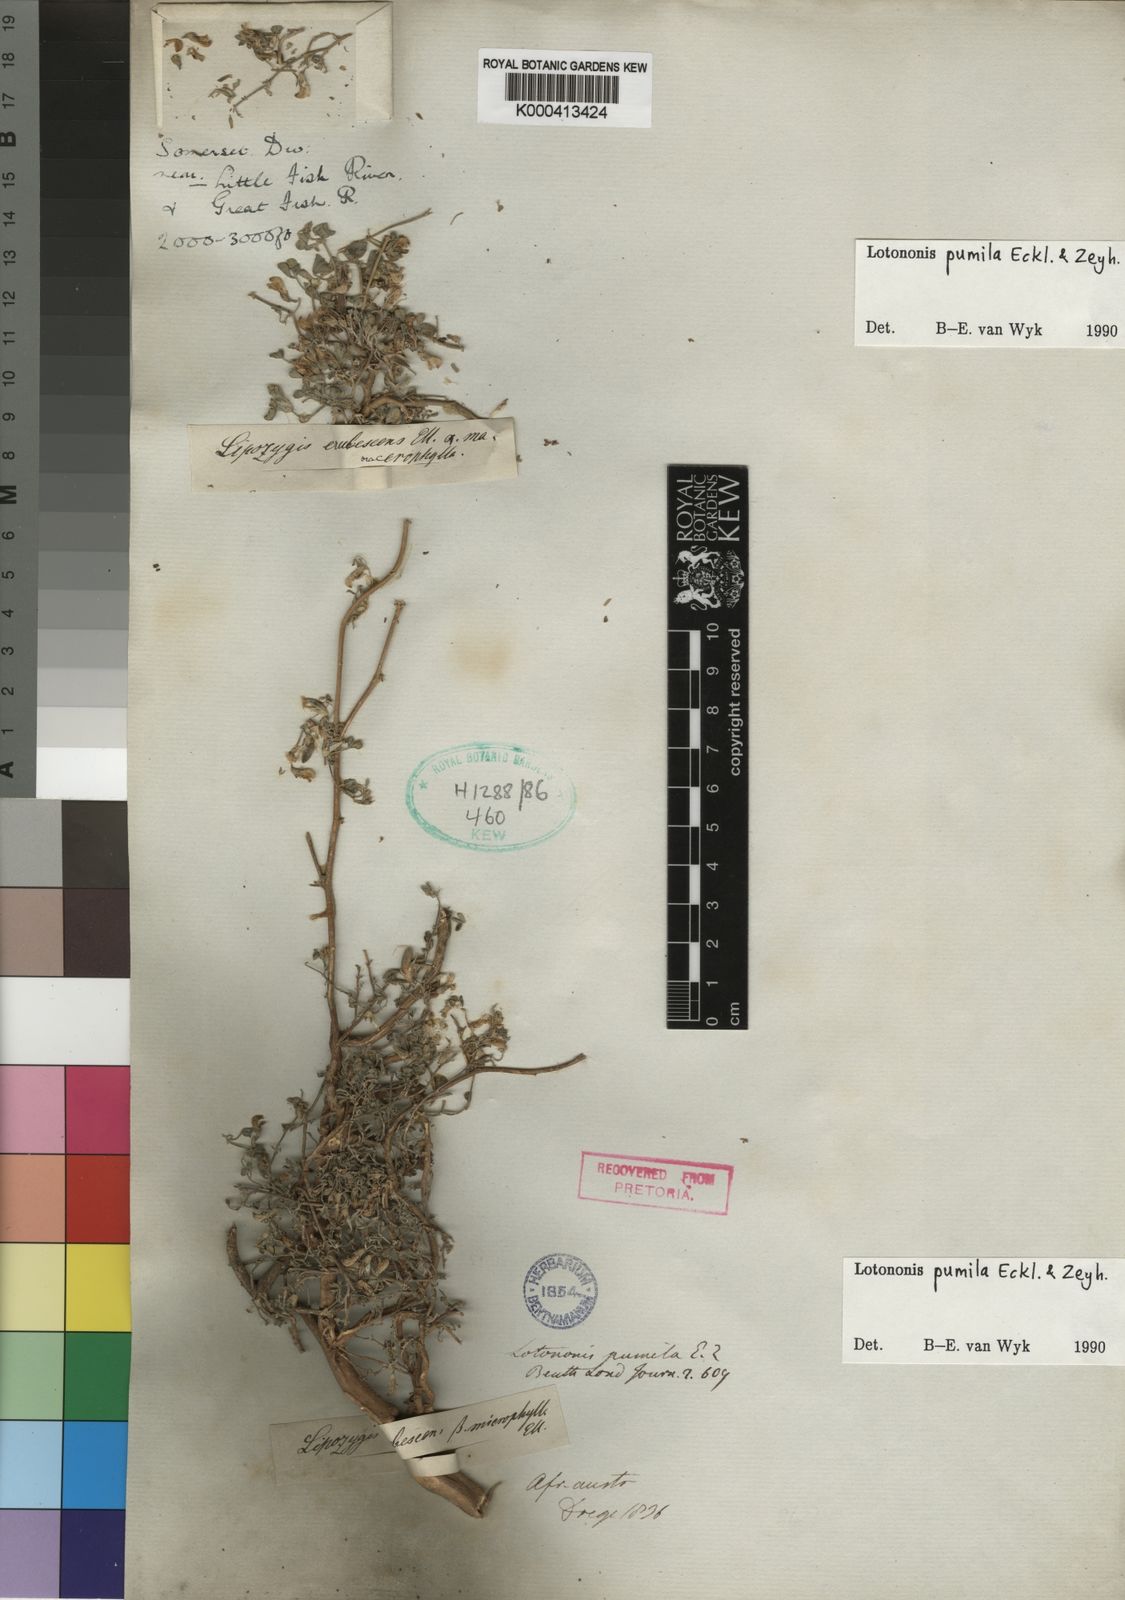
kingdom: Plantae
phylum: Tracheophyta
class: Magnoliopsida
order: Fabales
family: Fabaceae
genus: Lotononis
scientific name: Lotononis pumila
